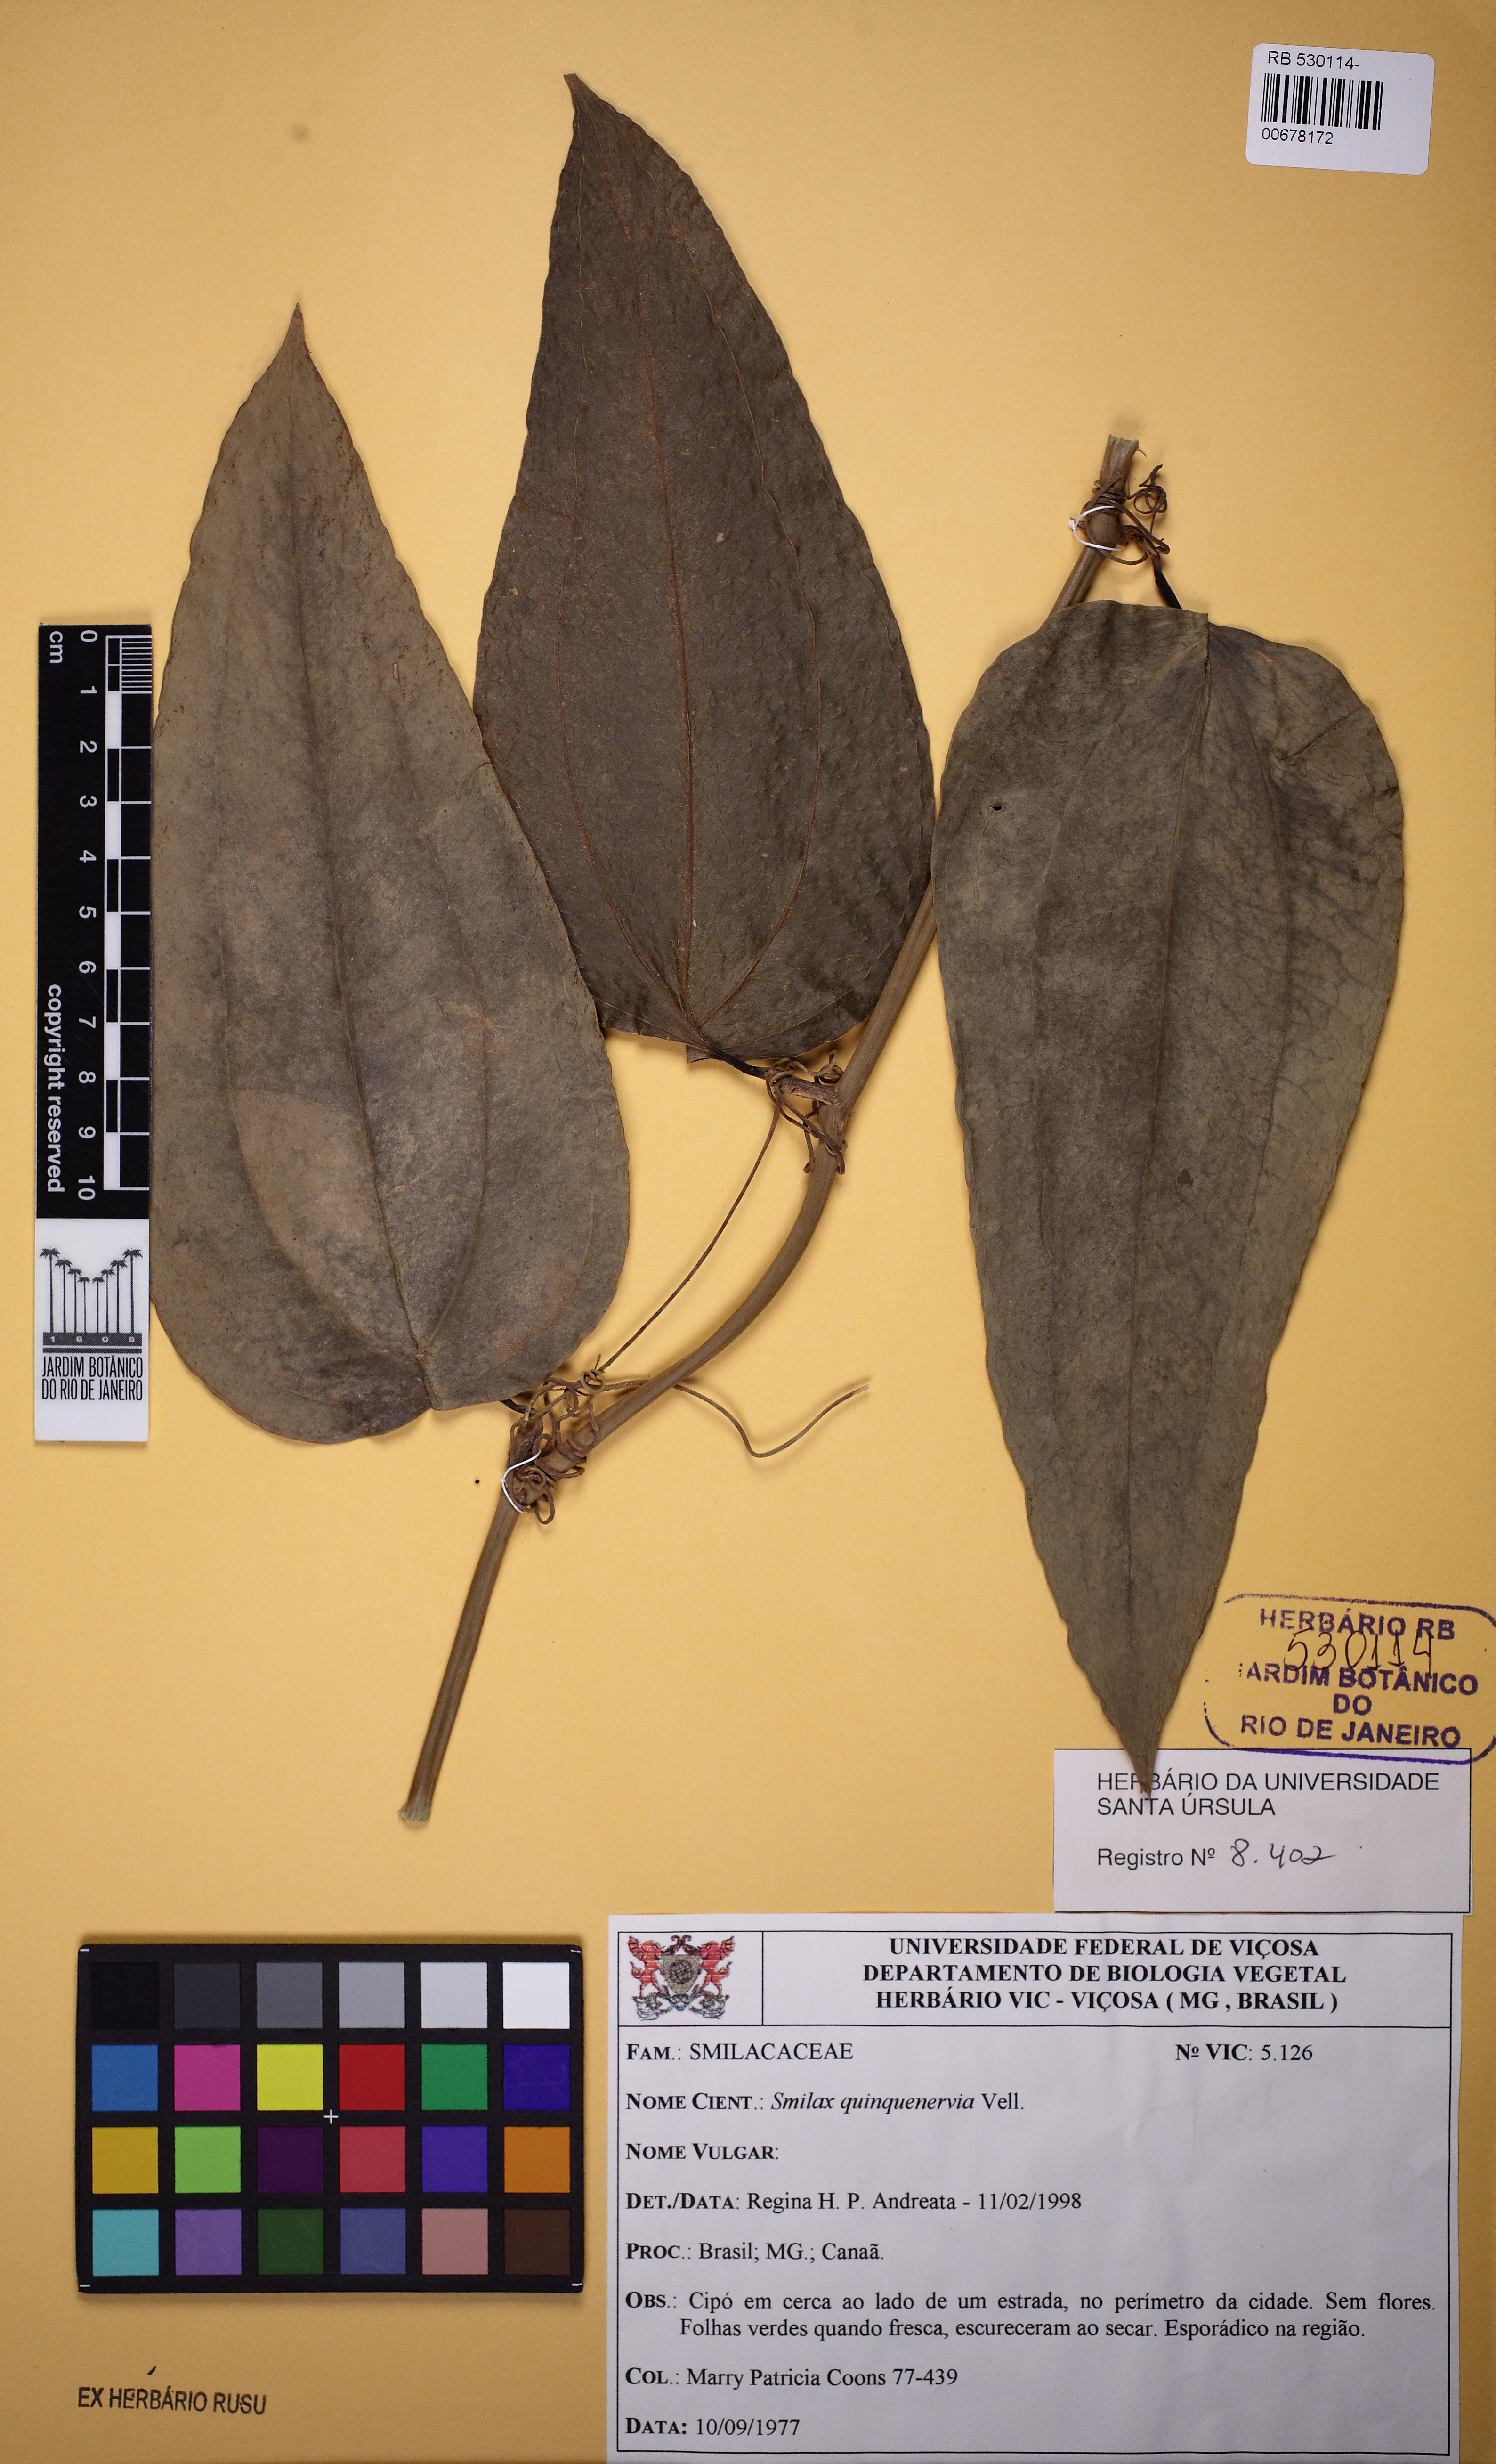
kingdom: Plantae
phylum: Tracheophyta
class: Liliopsida
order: Liliales
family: Smilacaceae
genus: Smilax
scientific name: Smilax quinquenervia
